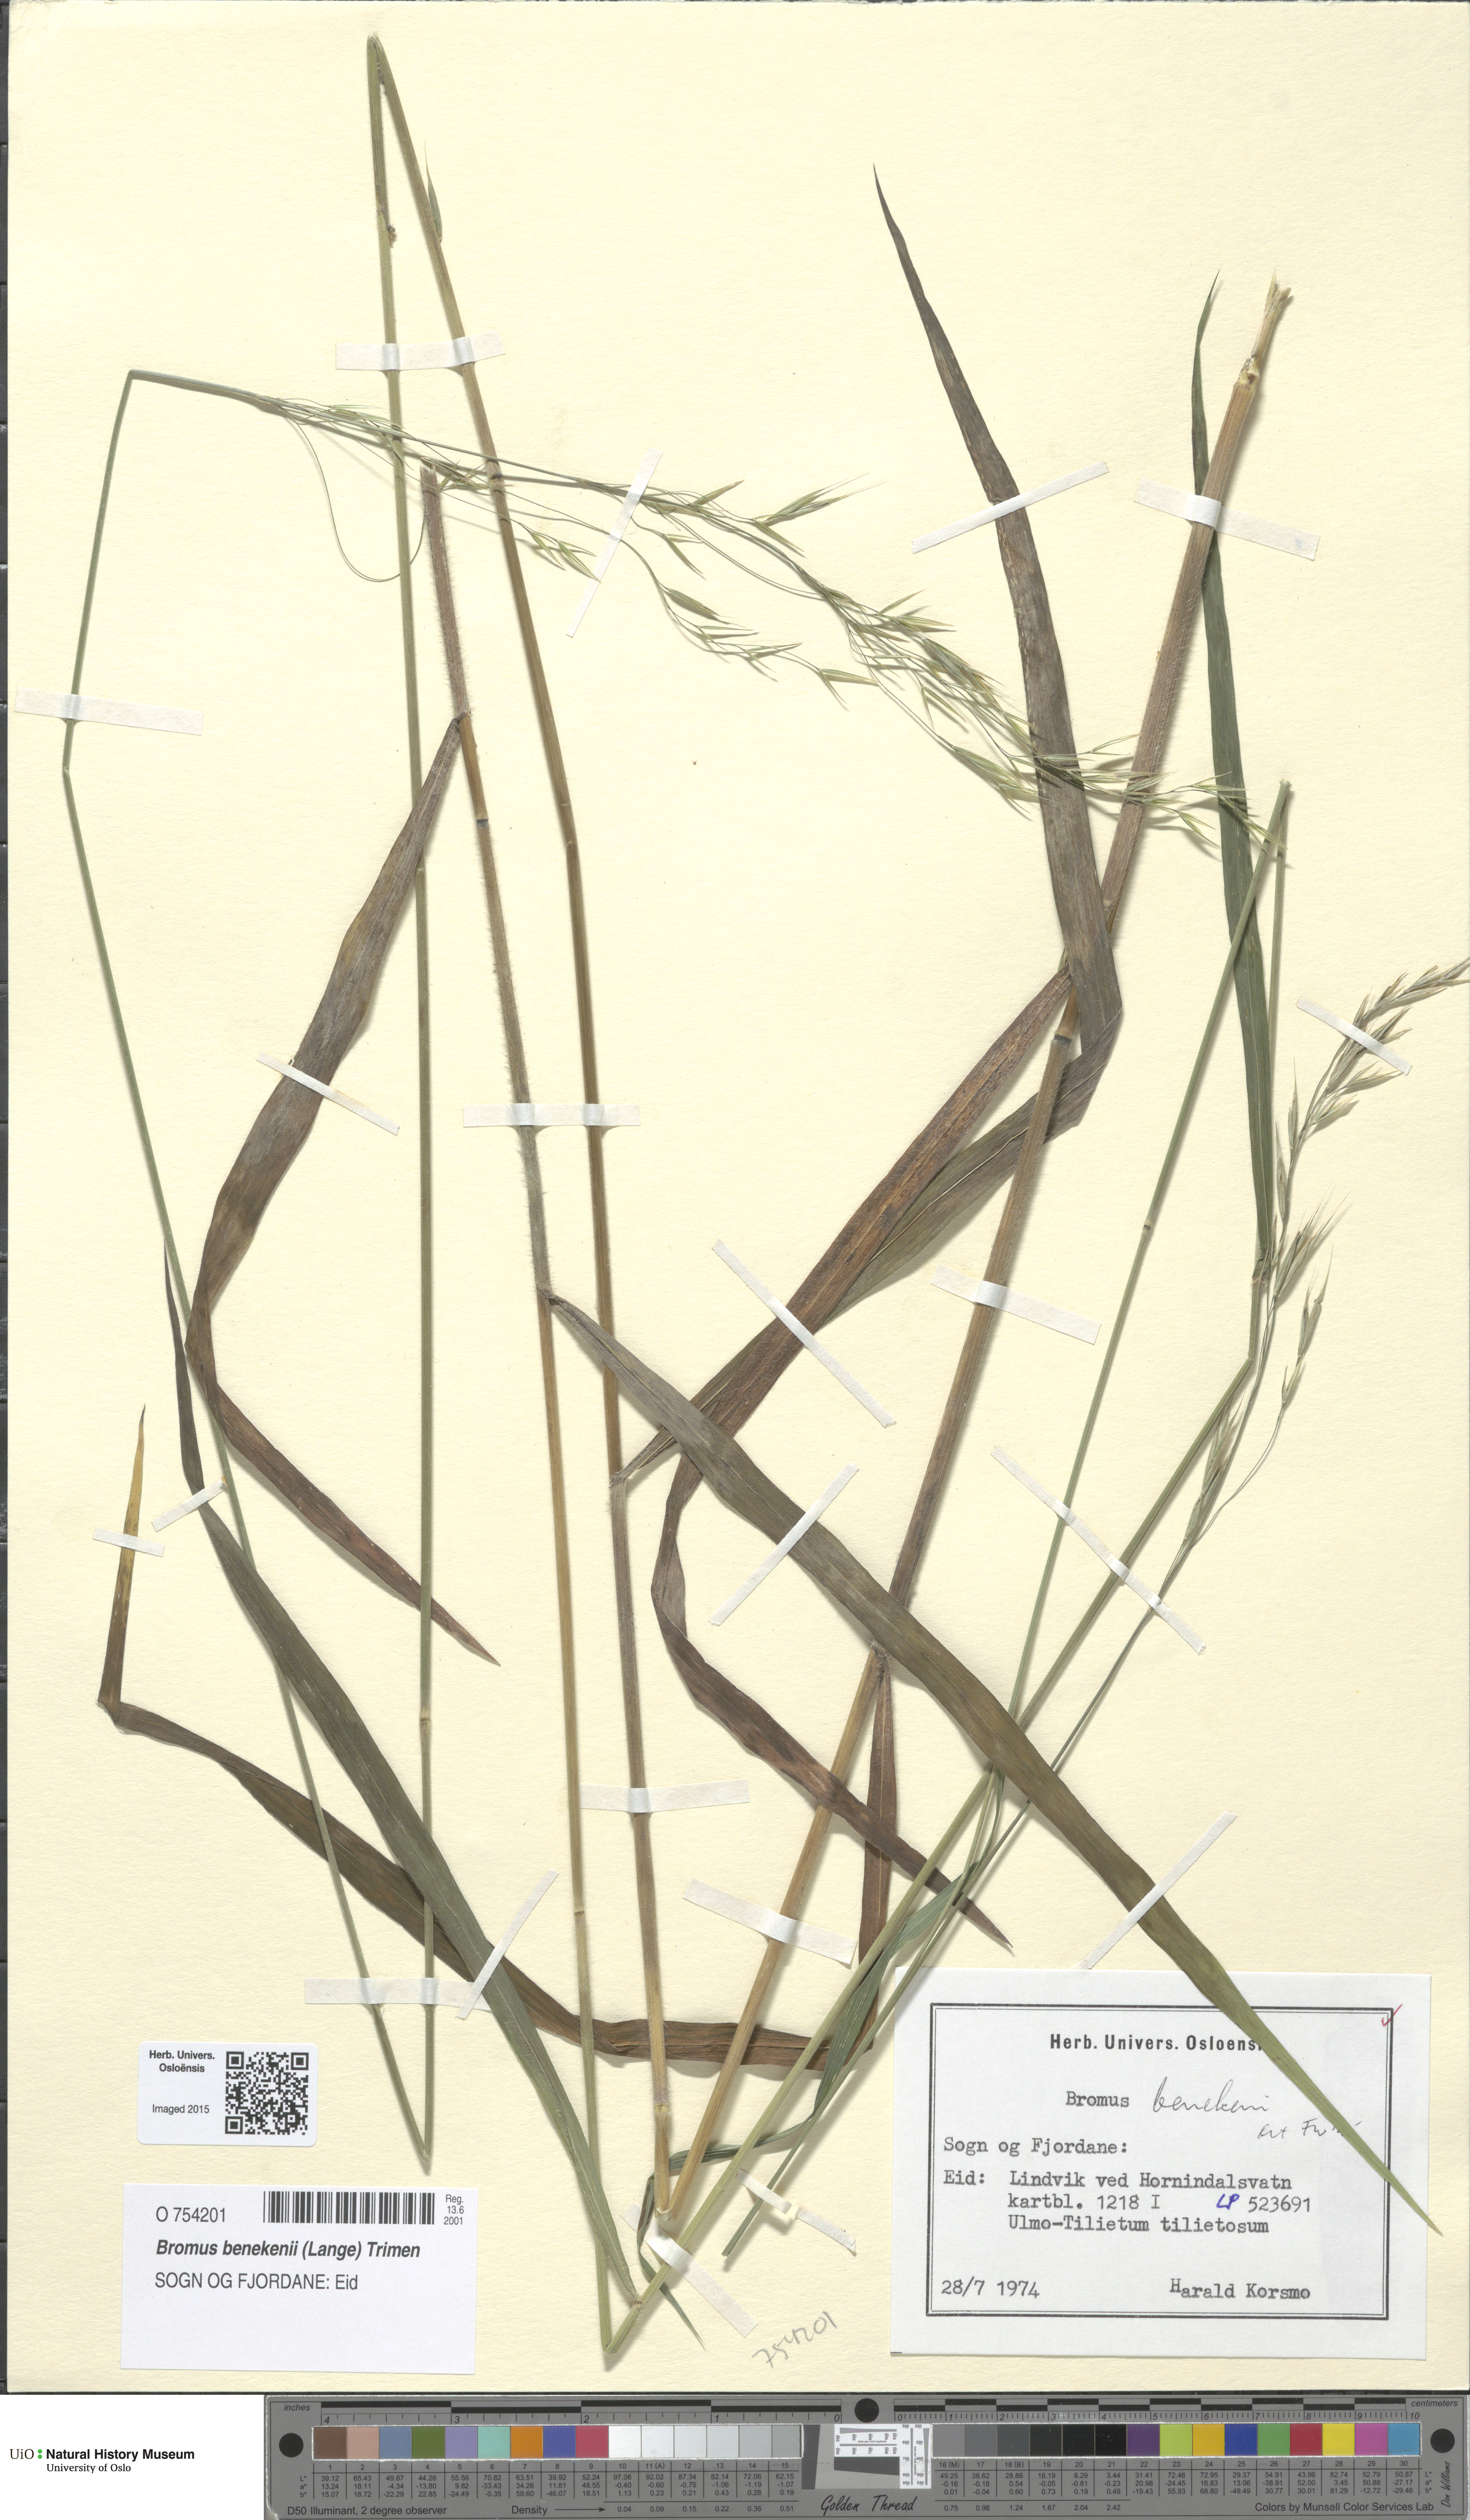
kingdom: Plantae
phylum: Tracheophyta
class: Liliopsida
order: Poales
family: Poaceae
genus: Bromus
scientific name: Bromus benekenii
